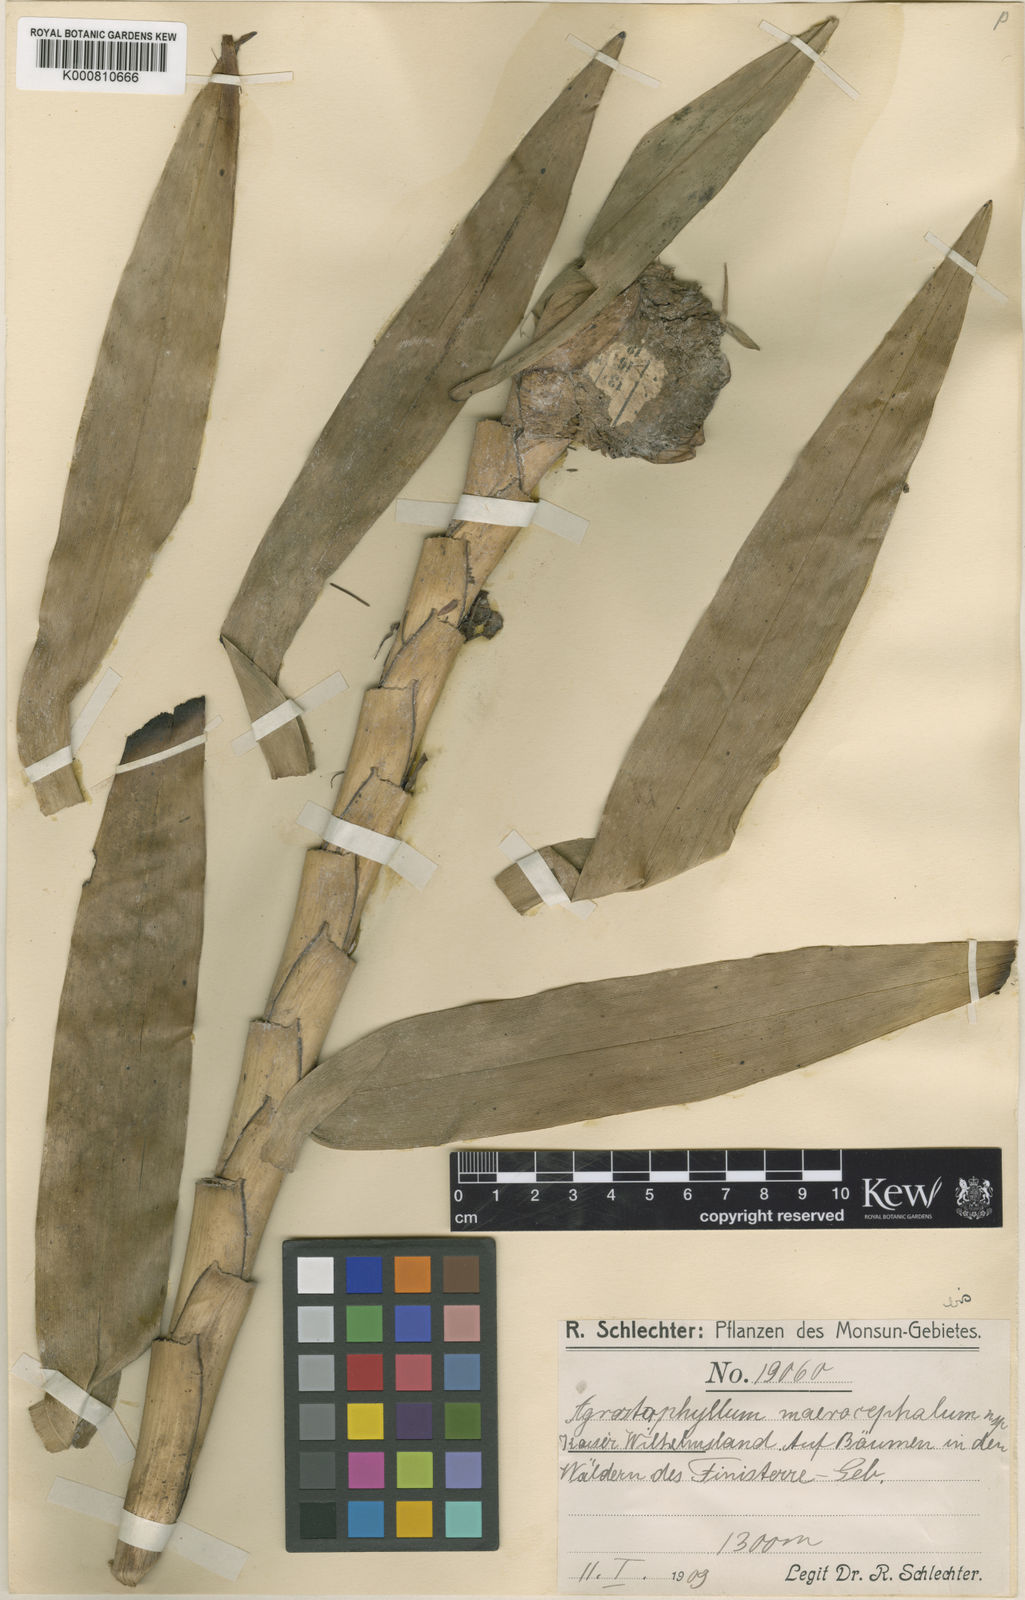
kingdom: Plantae
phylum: Tracheophyta
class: Liliopsida
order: Asparagales
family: Orchidaceae
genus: Agrostophyllum
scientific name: Agrostophyllum macrocephalum
